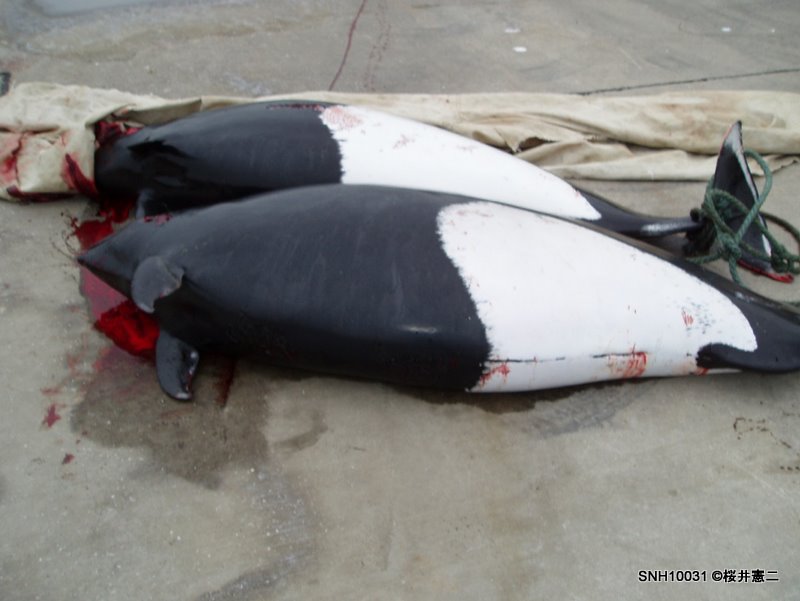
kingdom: Animalia
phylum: Chordata
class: Mammalia
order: Cetacea
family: Phocoenidae
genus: Phocoenoides
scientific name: Phocoenoides dalli
